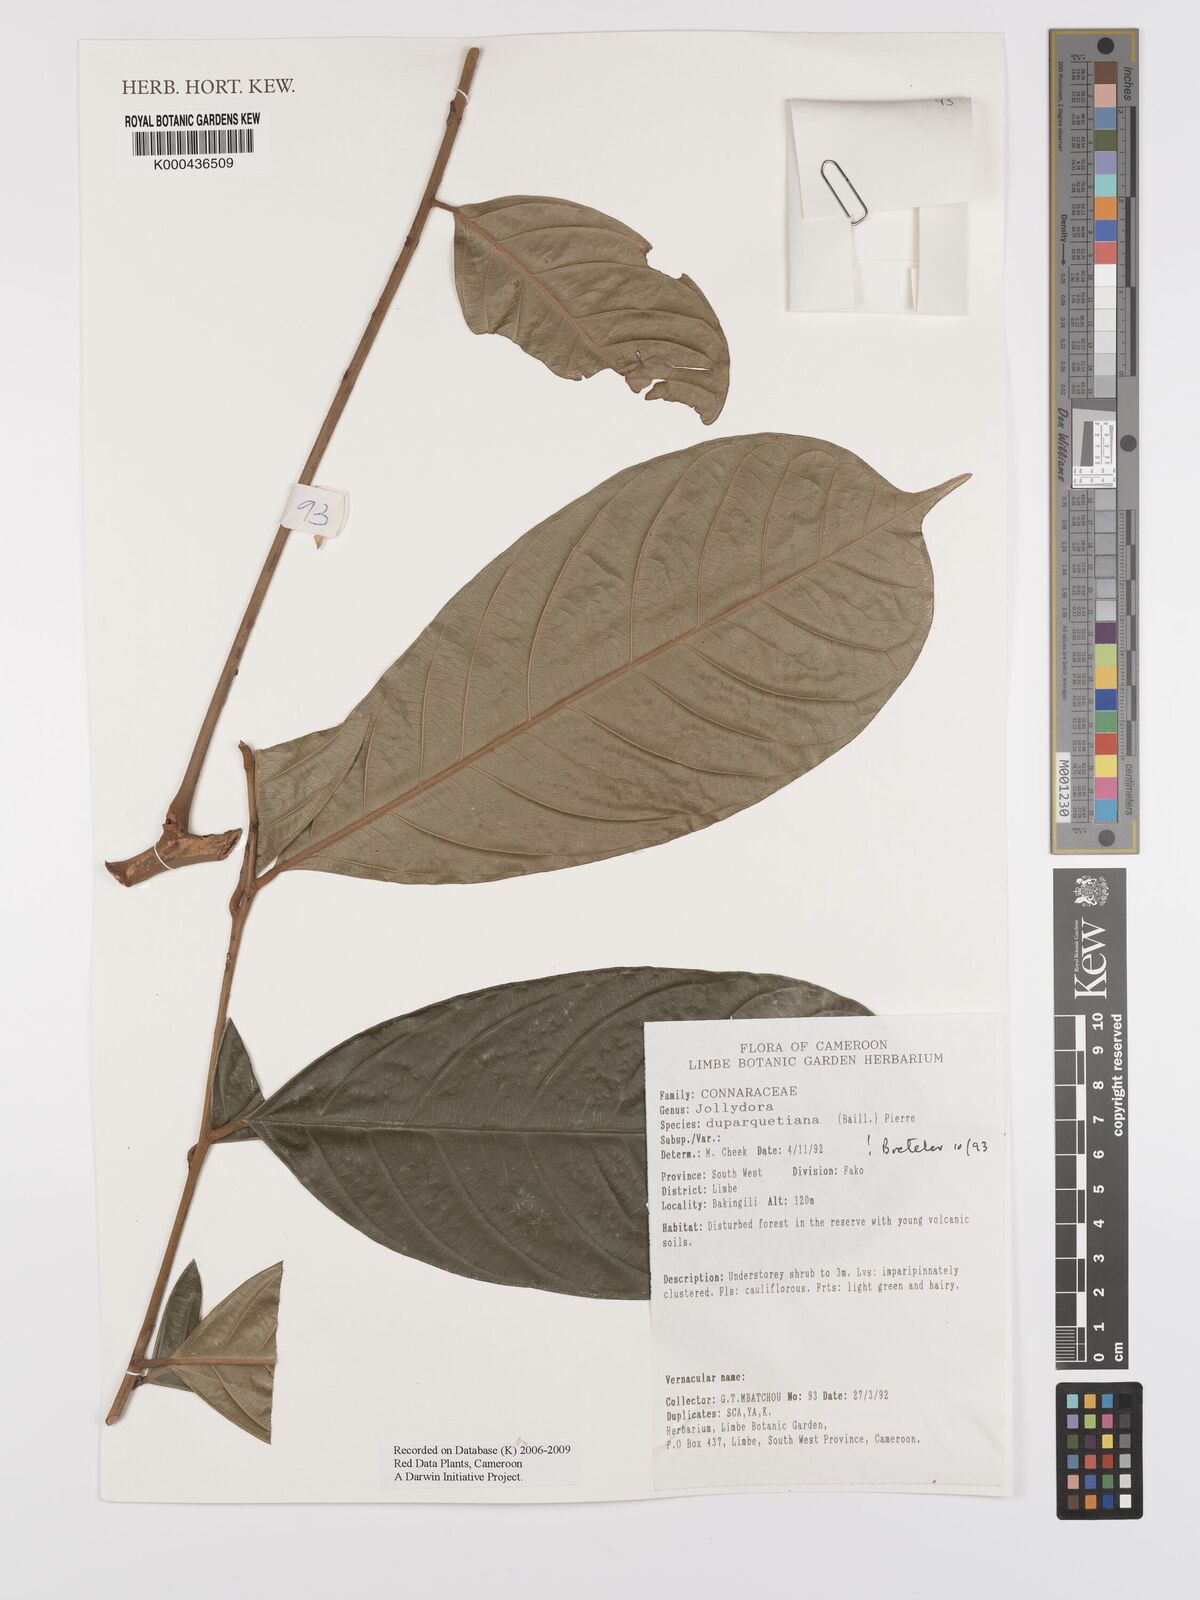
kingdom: Plantae
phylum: Tracheophyta
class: Magnoliopsida
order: Oxalidales
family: Connaraceae
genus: Jollydora
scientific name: Jollydora duparquetiana
